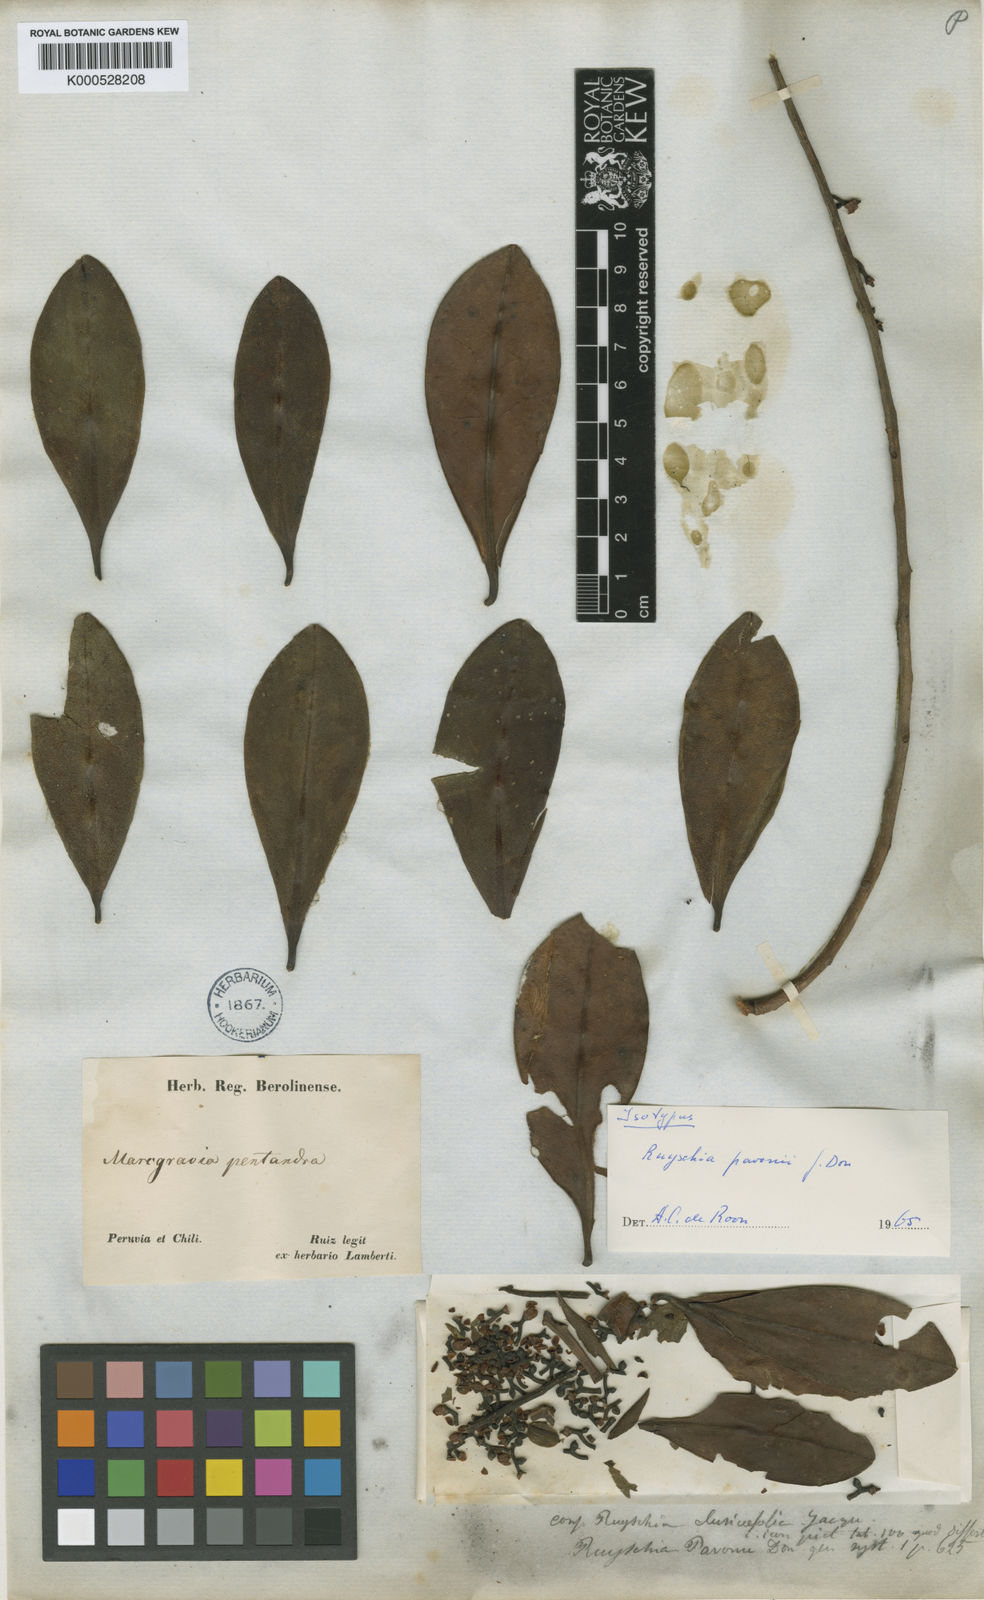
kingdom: Plantae
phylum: Tracheophyta
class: Magnoliopsida
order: Ericales
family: Marcgraviaceae
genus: Ruyschia
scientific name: Ruyschia pavonii
